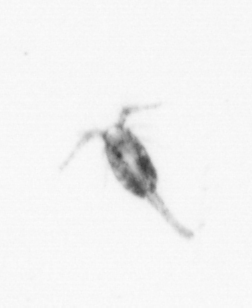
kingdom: Animalia
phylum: Arthropoda
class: Copepoda
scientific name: Copepoda
